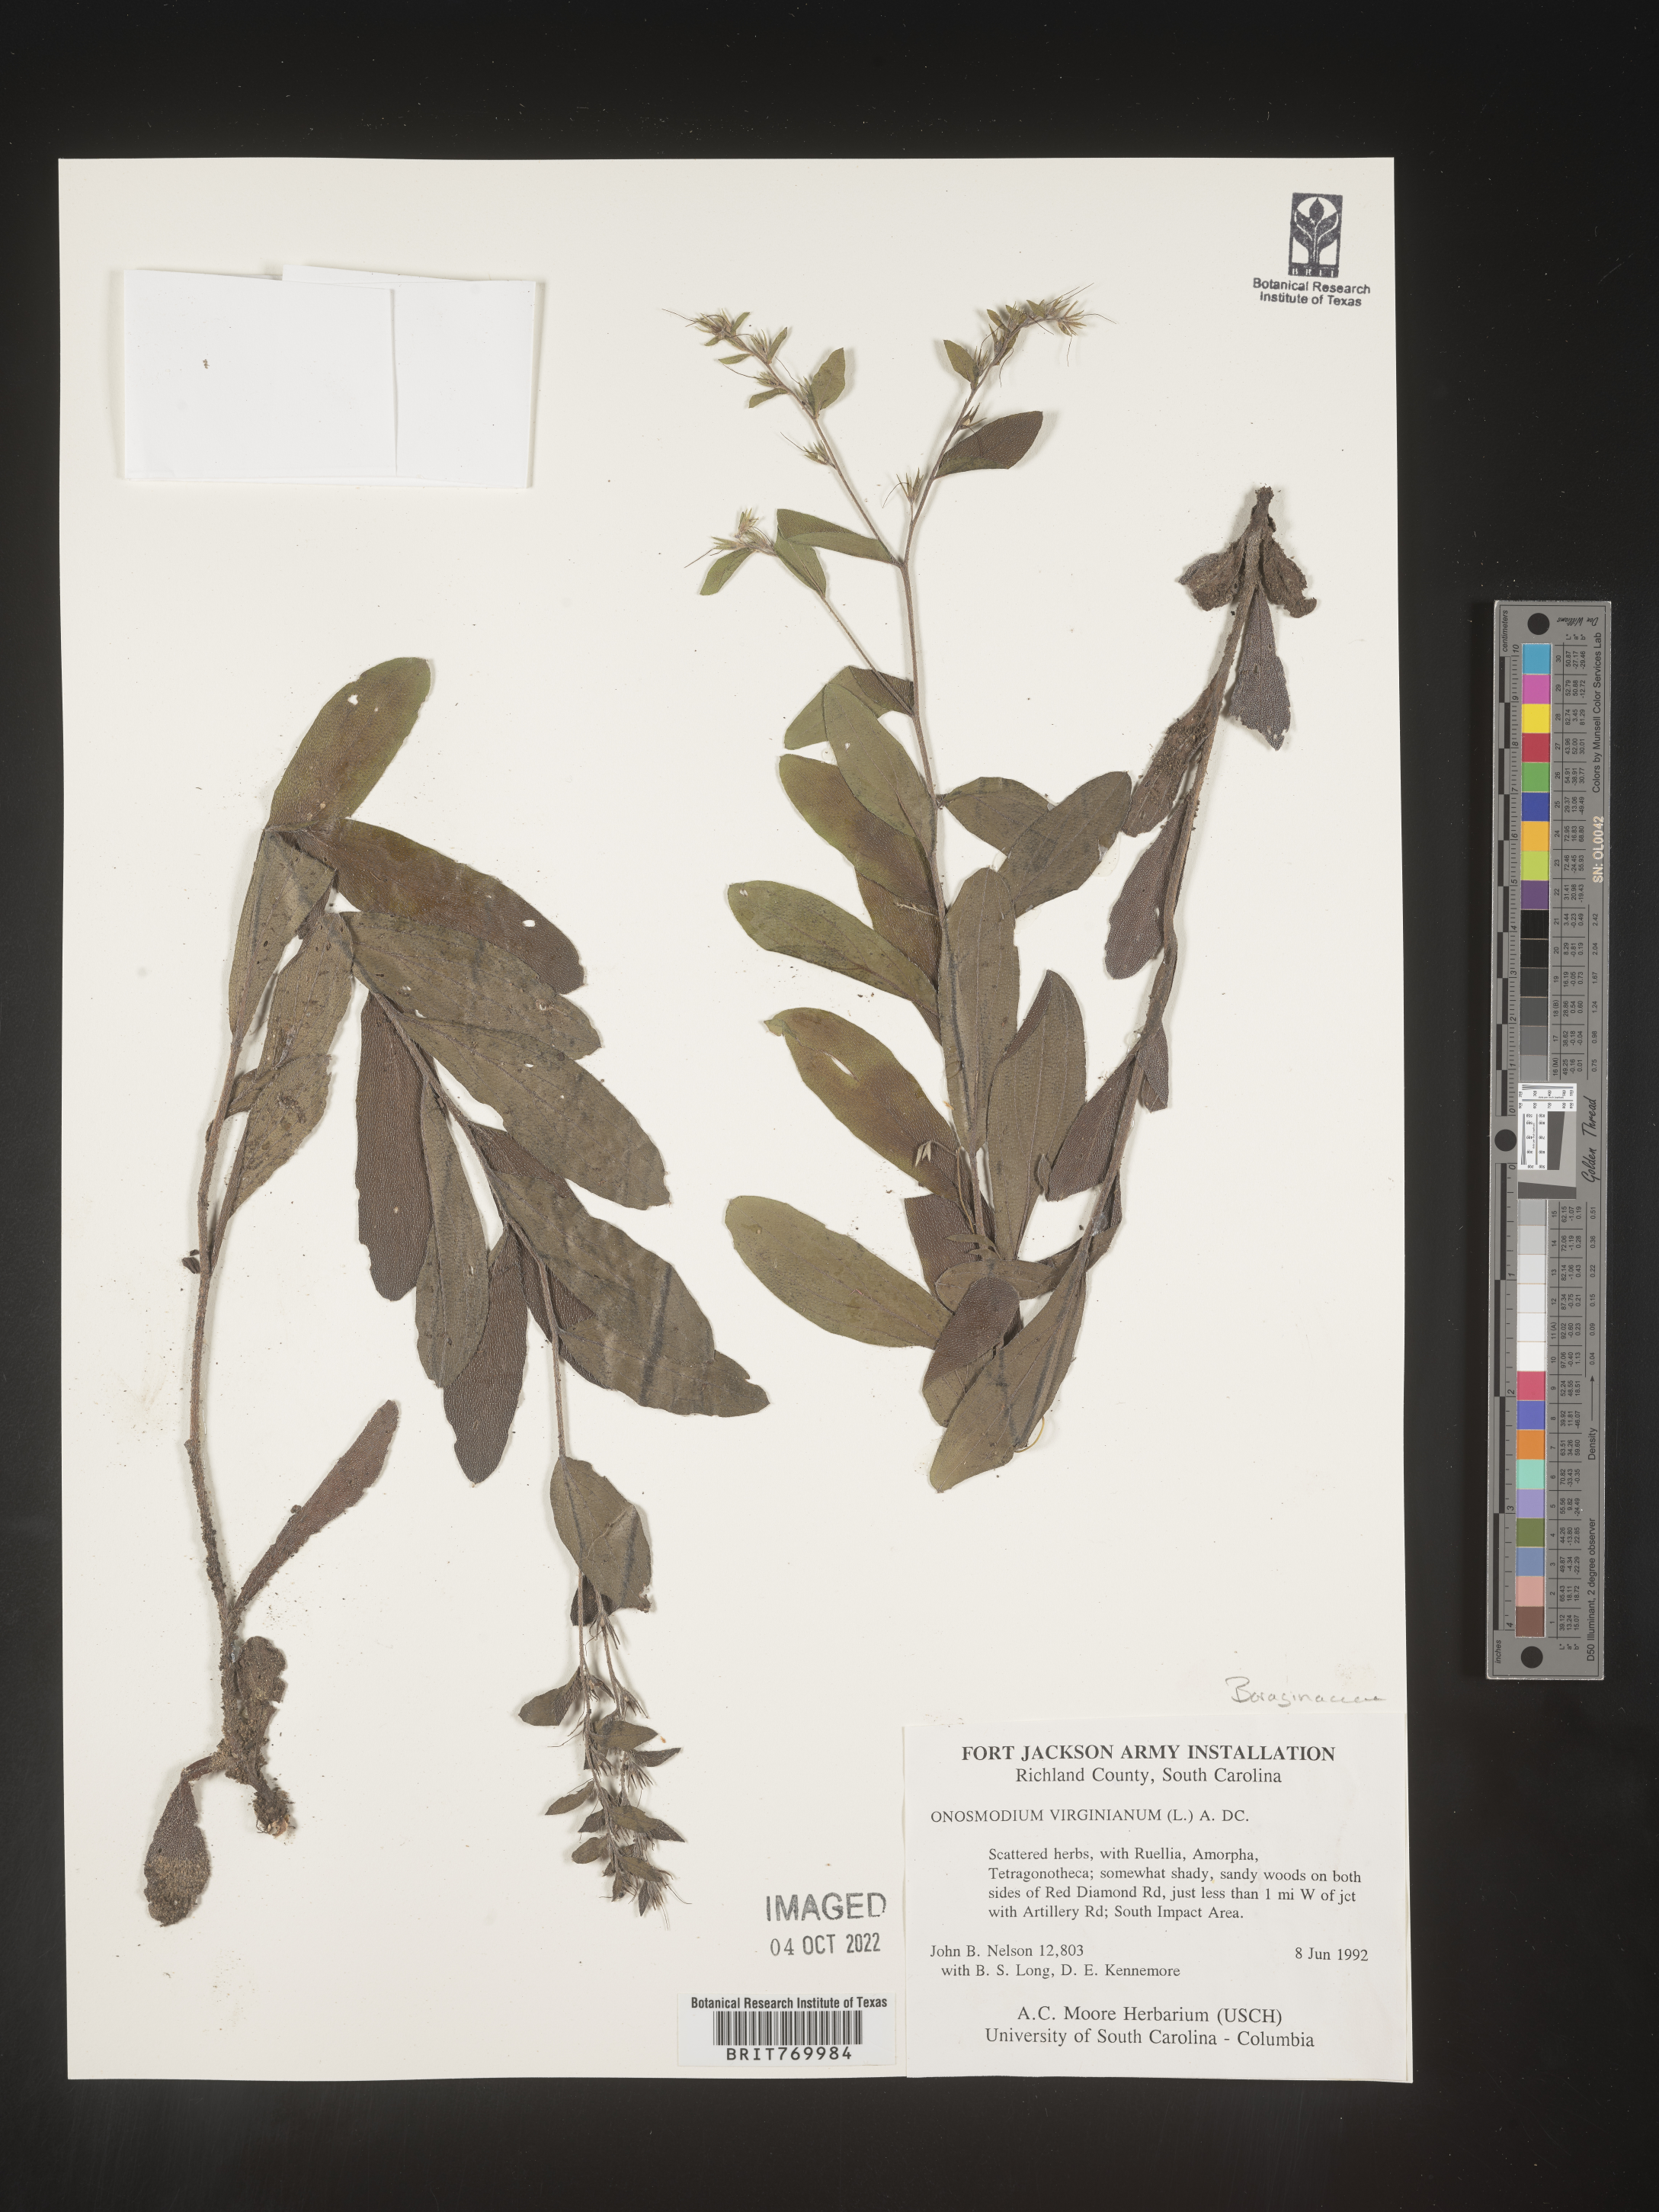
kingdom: Plantae
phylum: Tracheophyta
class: Magnoliopsida
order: Boraginales
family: Boraginaceae
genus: Lithospermum
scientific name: Lithospermum virginianum
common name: Eastern false gromwell
